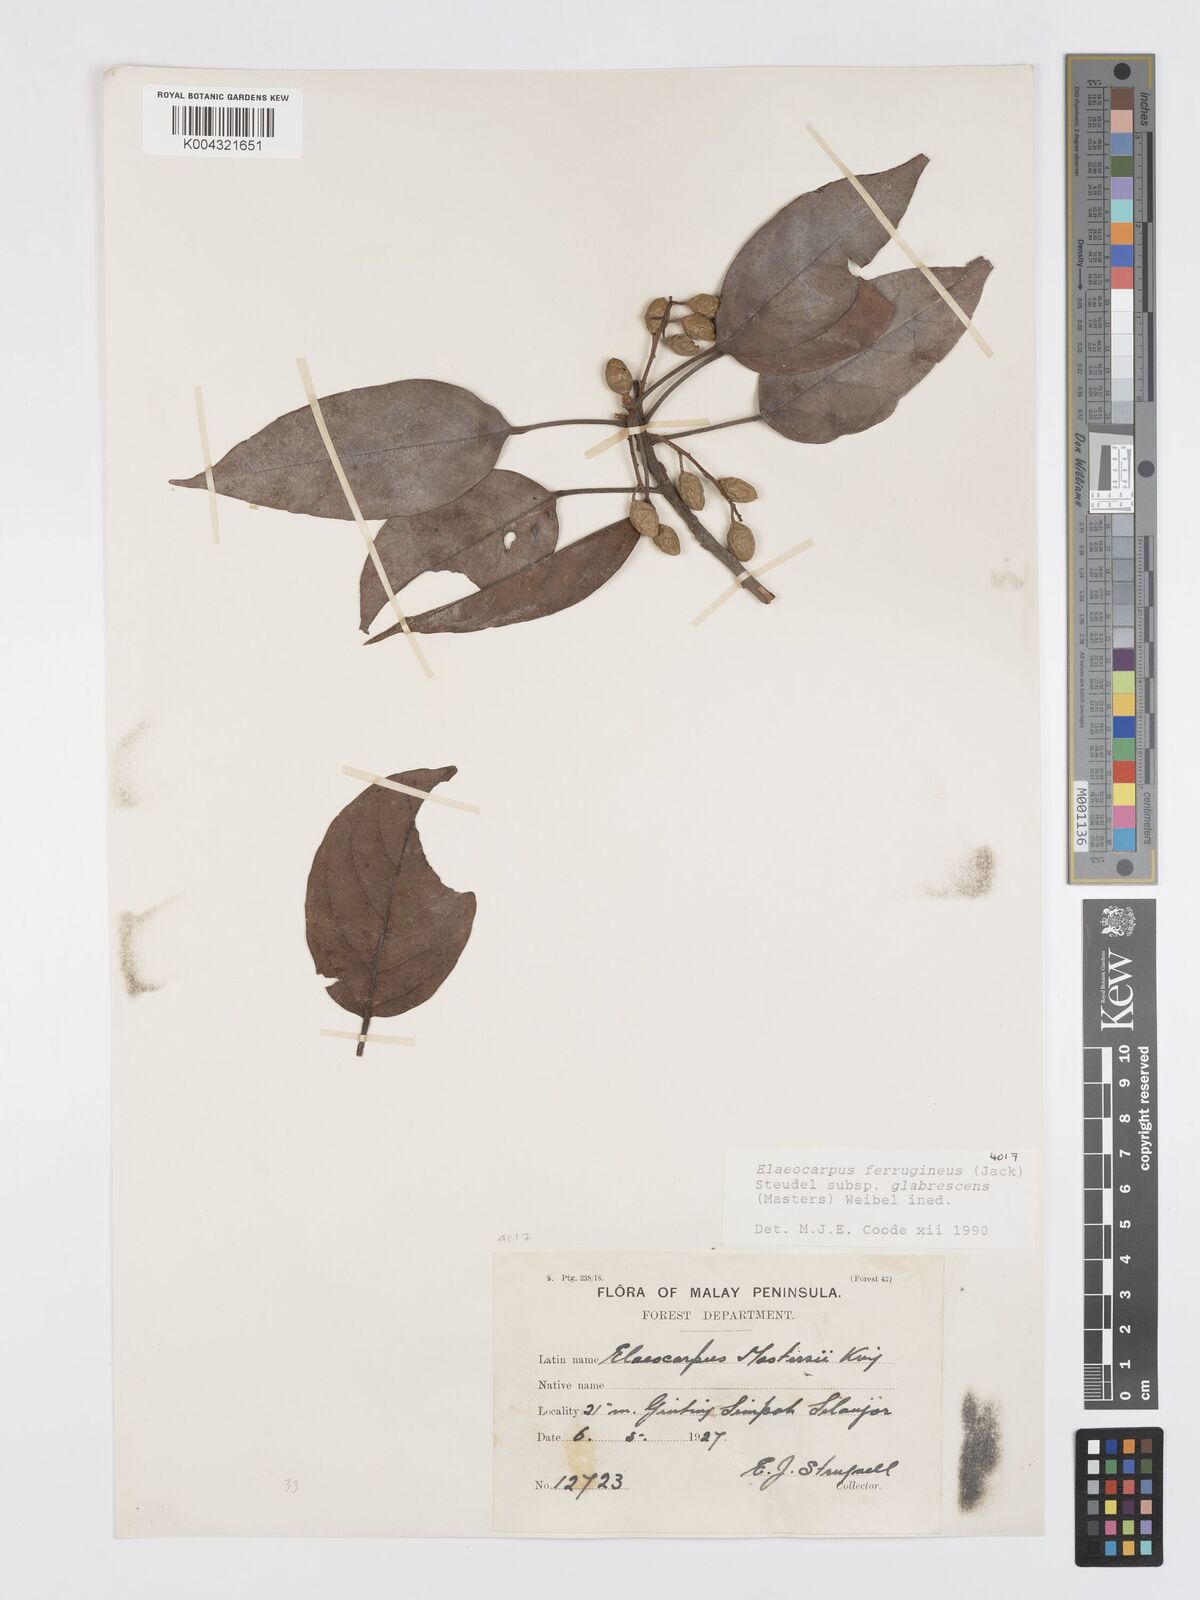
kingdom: Plantae
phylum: Tracheophyta
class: Magnoliopsida
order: Oxalidales
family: Elaeocarpaceae
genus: Elaeocarpus
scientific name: Elaeocarpus ferrugineus
